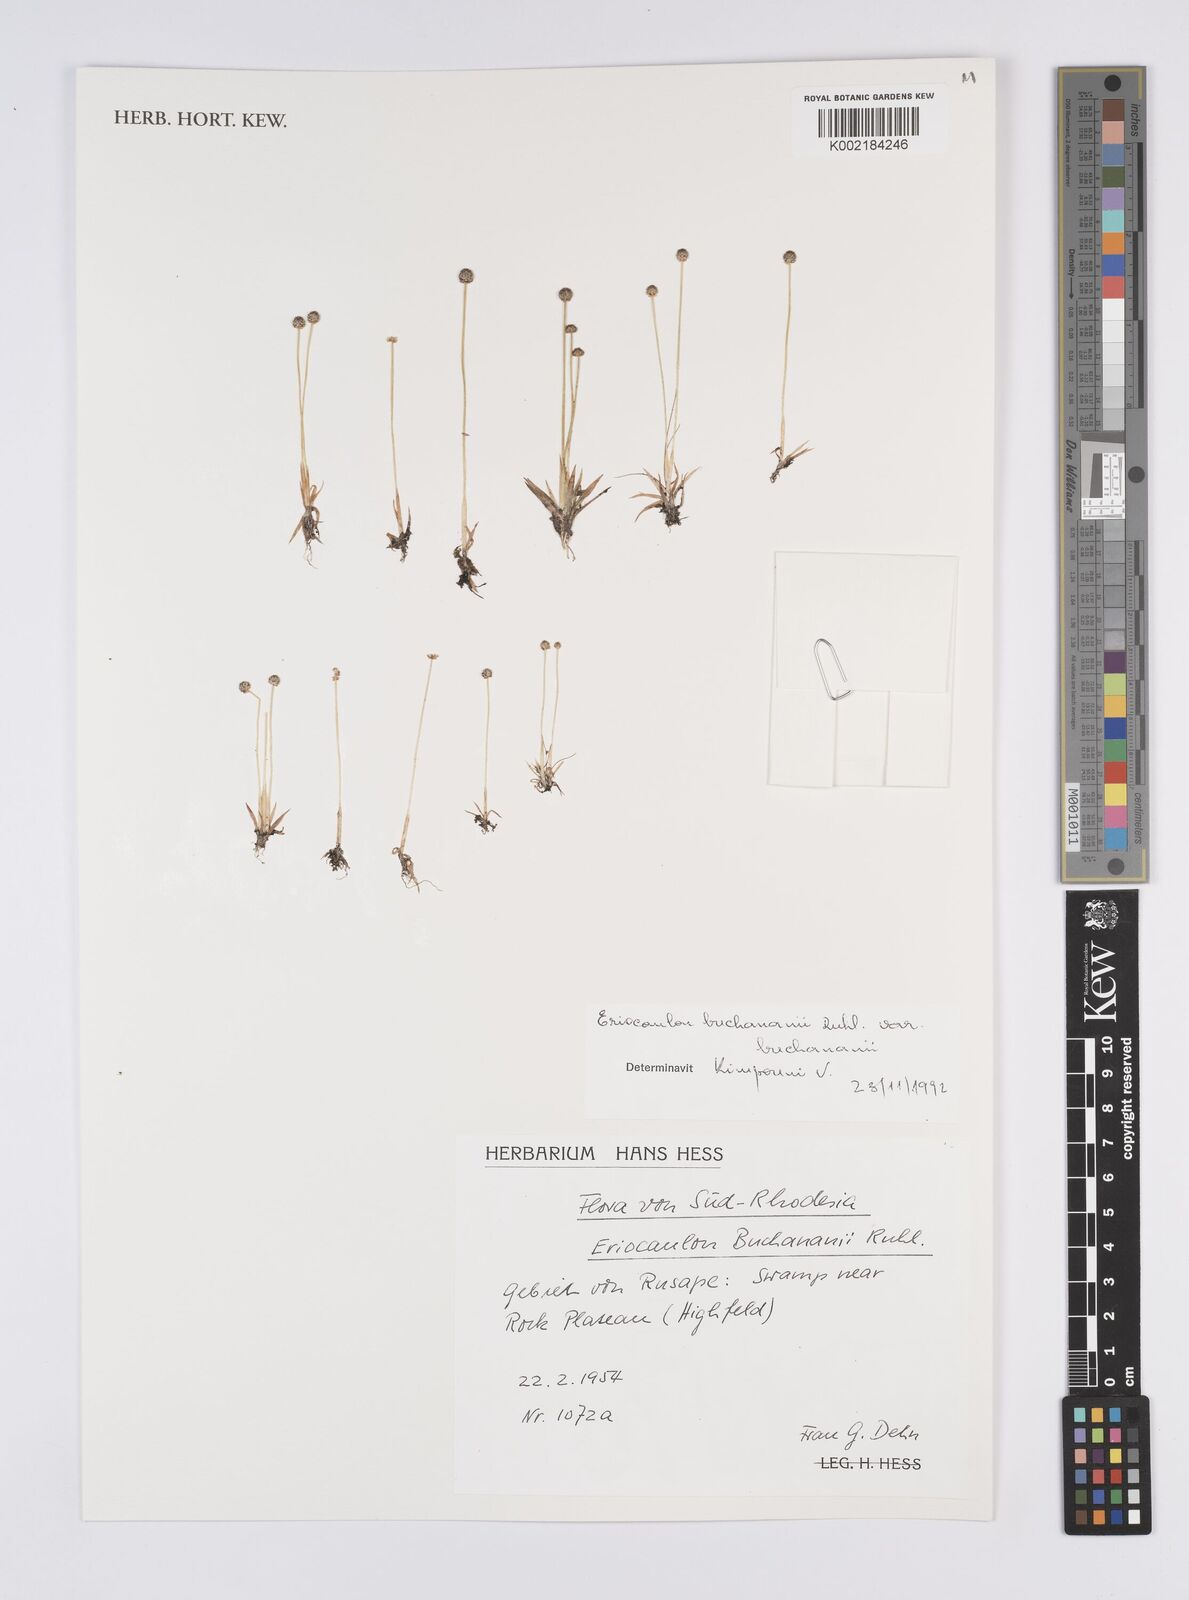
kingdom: Plantae
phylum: Tracheophyta
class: Liliopsida
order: Poales
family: Eriocaulaceae
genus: Eriocaulon
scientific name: Eriocaulon buchananii
